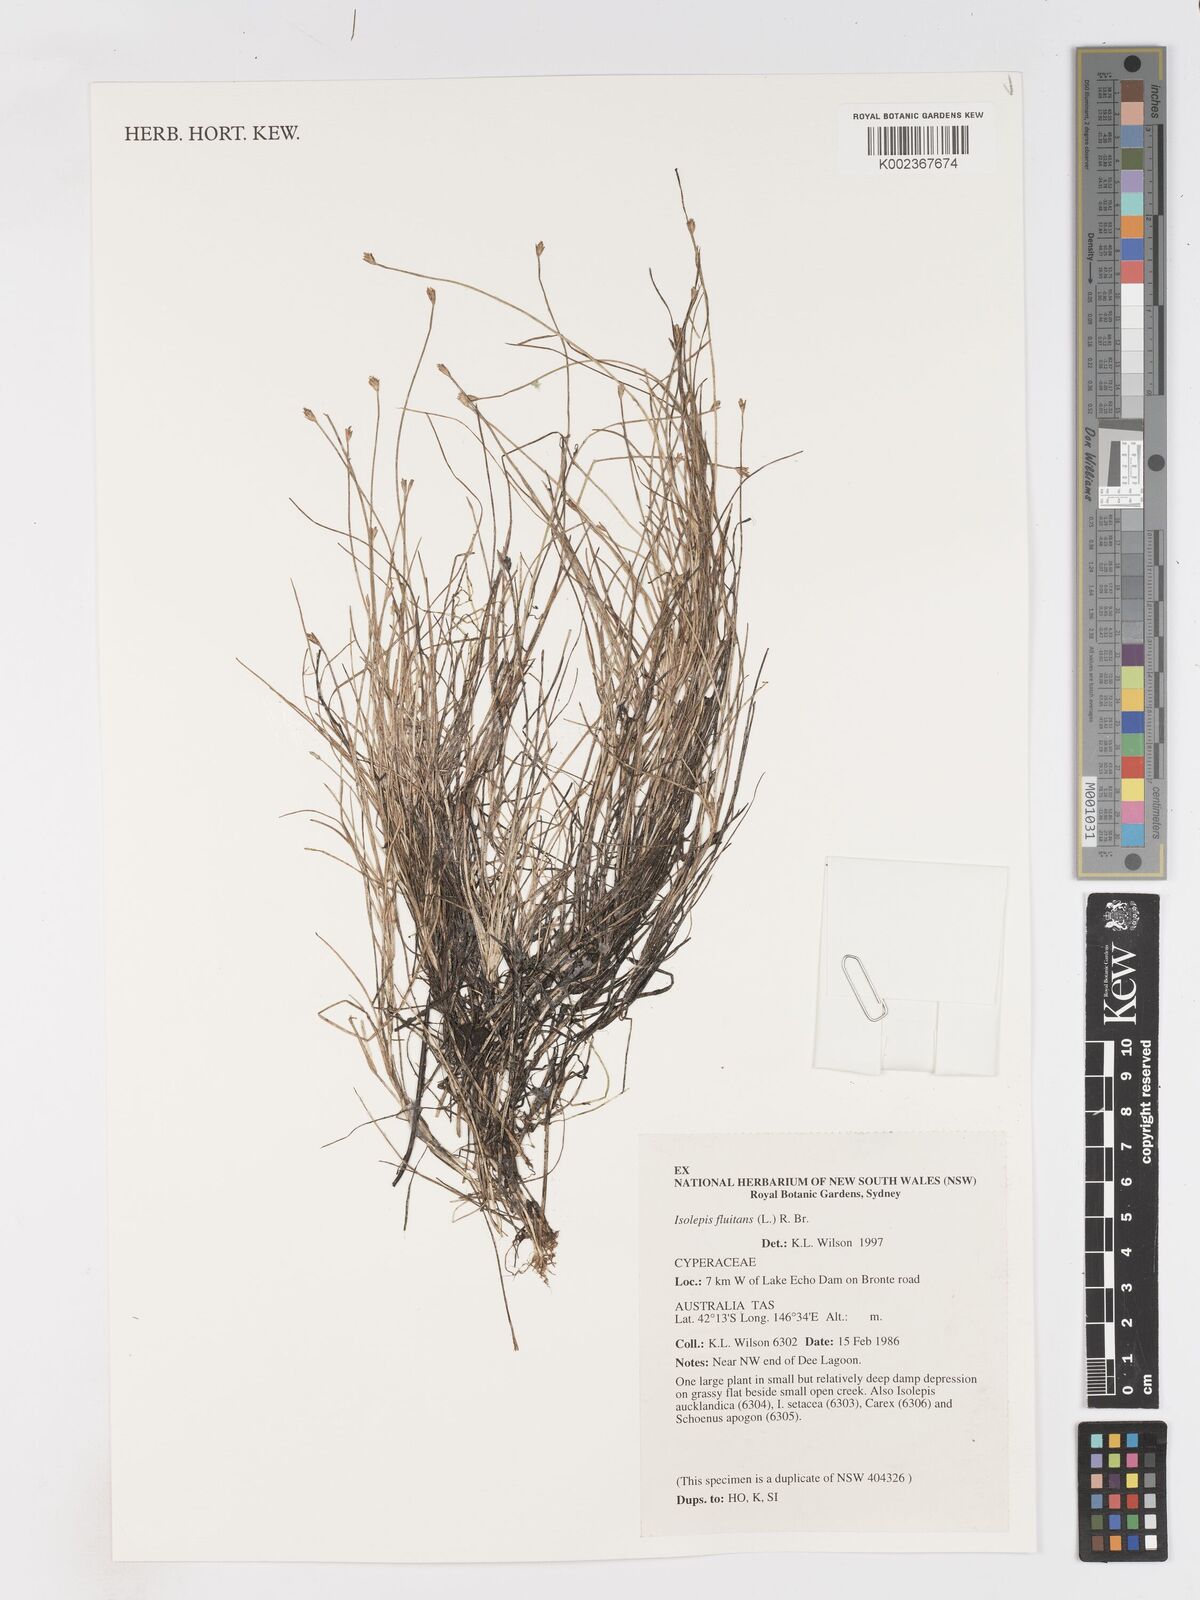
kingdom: Plantae
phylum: Tracheophyta
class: Liliopsida
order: Poales
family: Cyperaceae
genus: Isolepis
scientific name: Isolepis fluitans
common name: Floating club-rush
